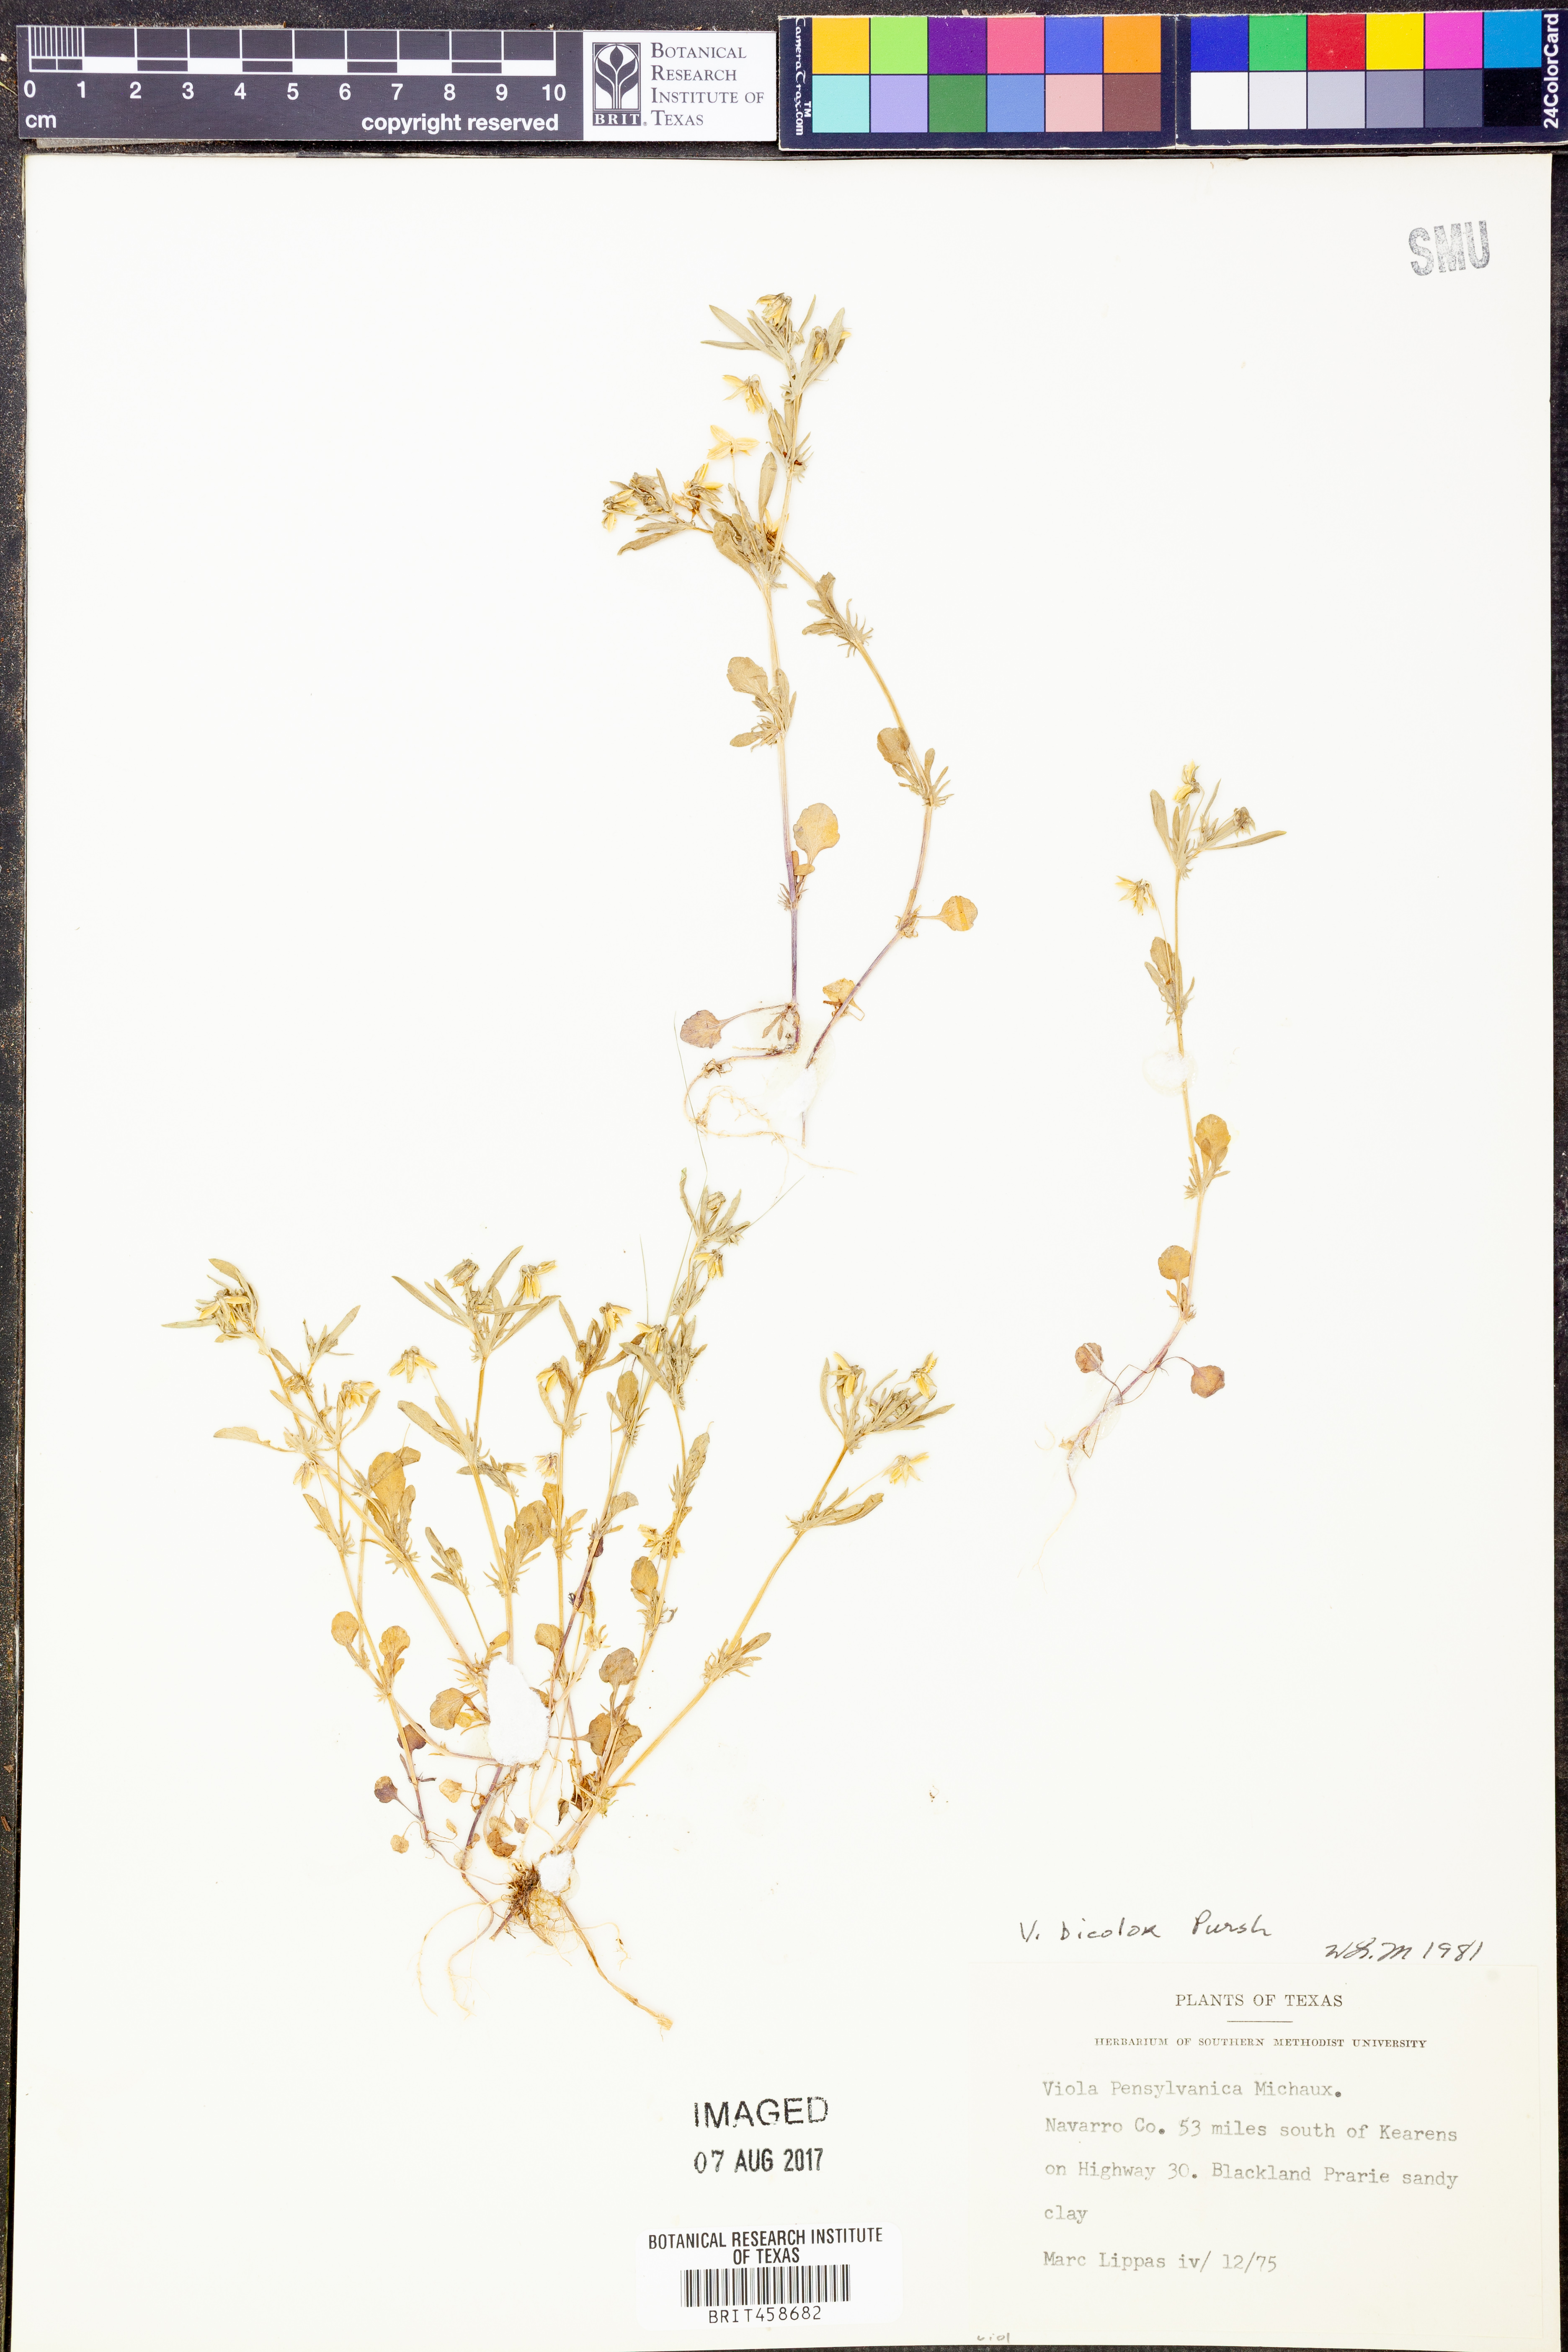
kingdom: Plantae
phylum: Tracheophyta
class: Magnoliopsida
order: Malpighiales
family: Violaceae
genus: Viola
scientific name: Viola rafinesquei
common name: American field pansy
